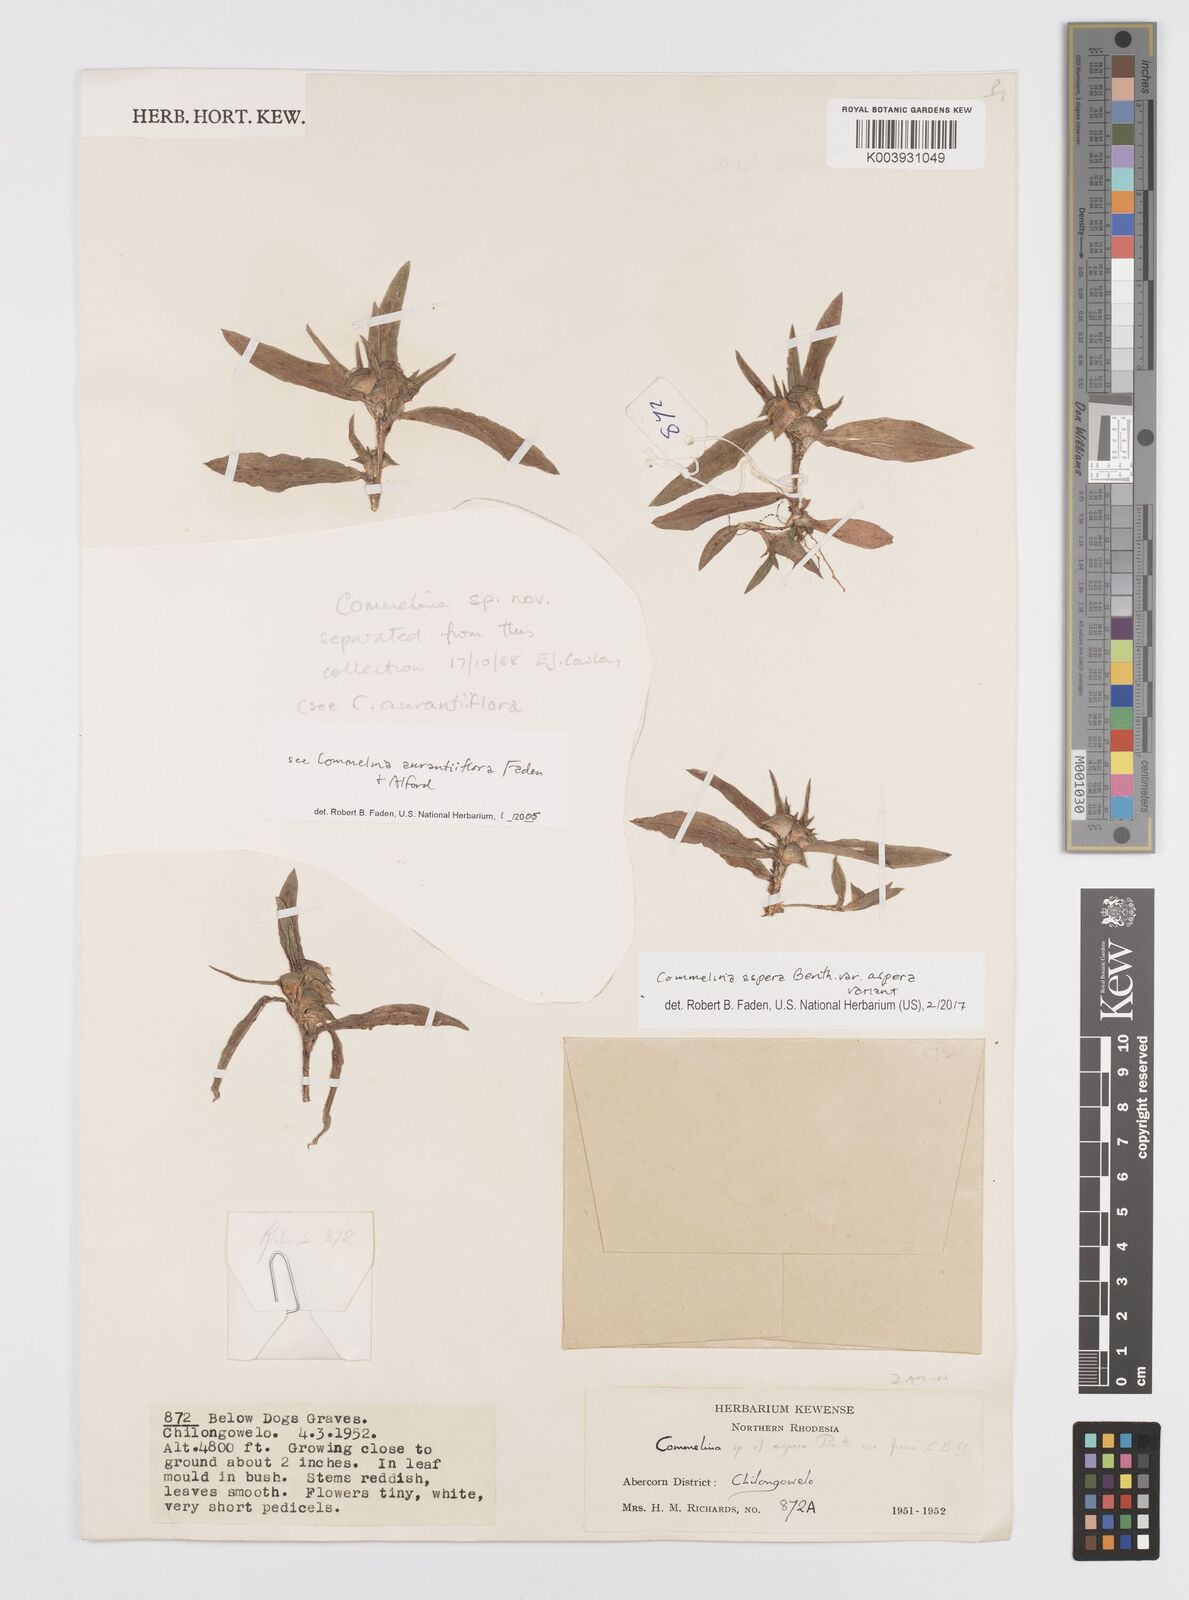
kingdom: Plantae
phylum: Tracheophyta
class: Liliopsida
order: Commelinales
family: Commelinaceae
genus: Commelina
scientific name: Commelina aspera
